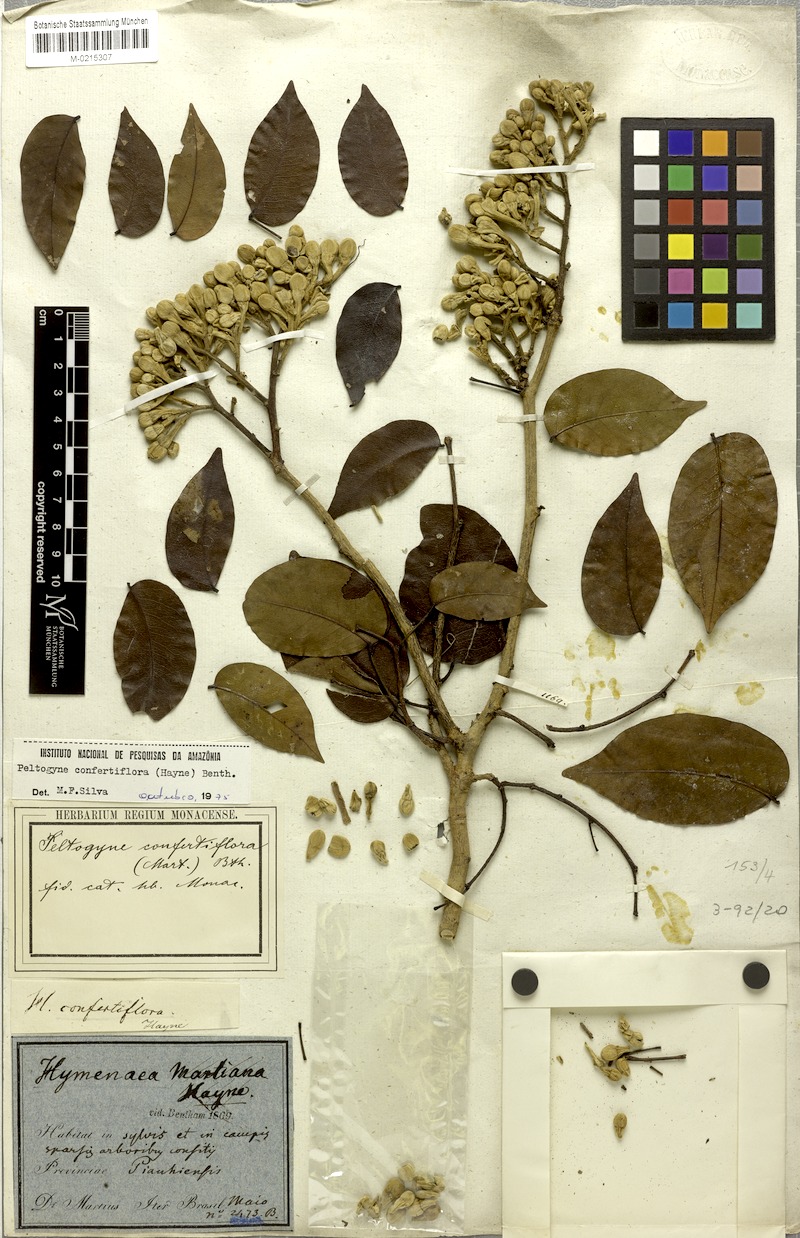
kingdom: Plantae
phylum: Tracheophyta
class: Magnoliopsida
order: Fabales
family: Fabaceae
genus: Peltogyne
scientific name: Peltogyne confertiflora
